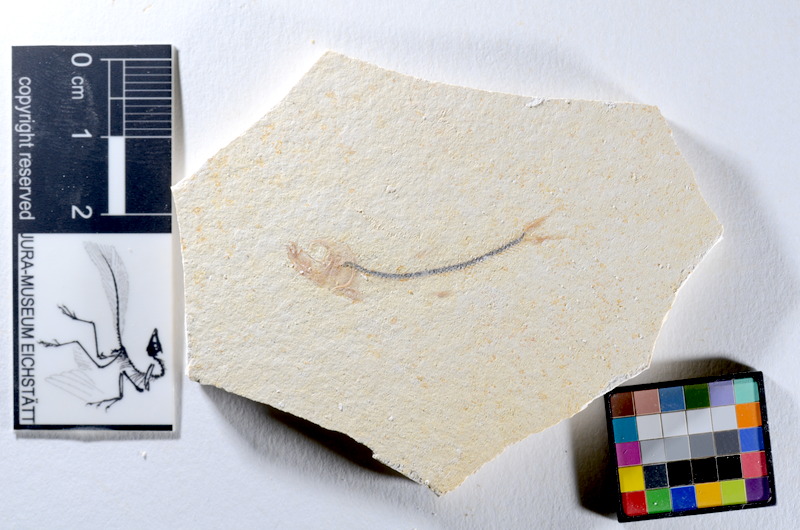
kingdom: Animalia
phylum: Chordata
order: Salmoniformes
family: Orthogonikleithridae
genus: Orthogonikleithrus
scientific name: Orthogonikleithrus hoelli
